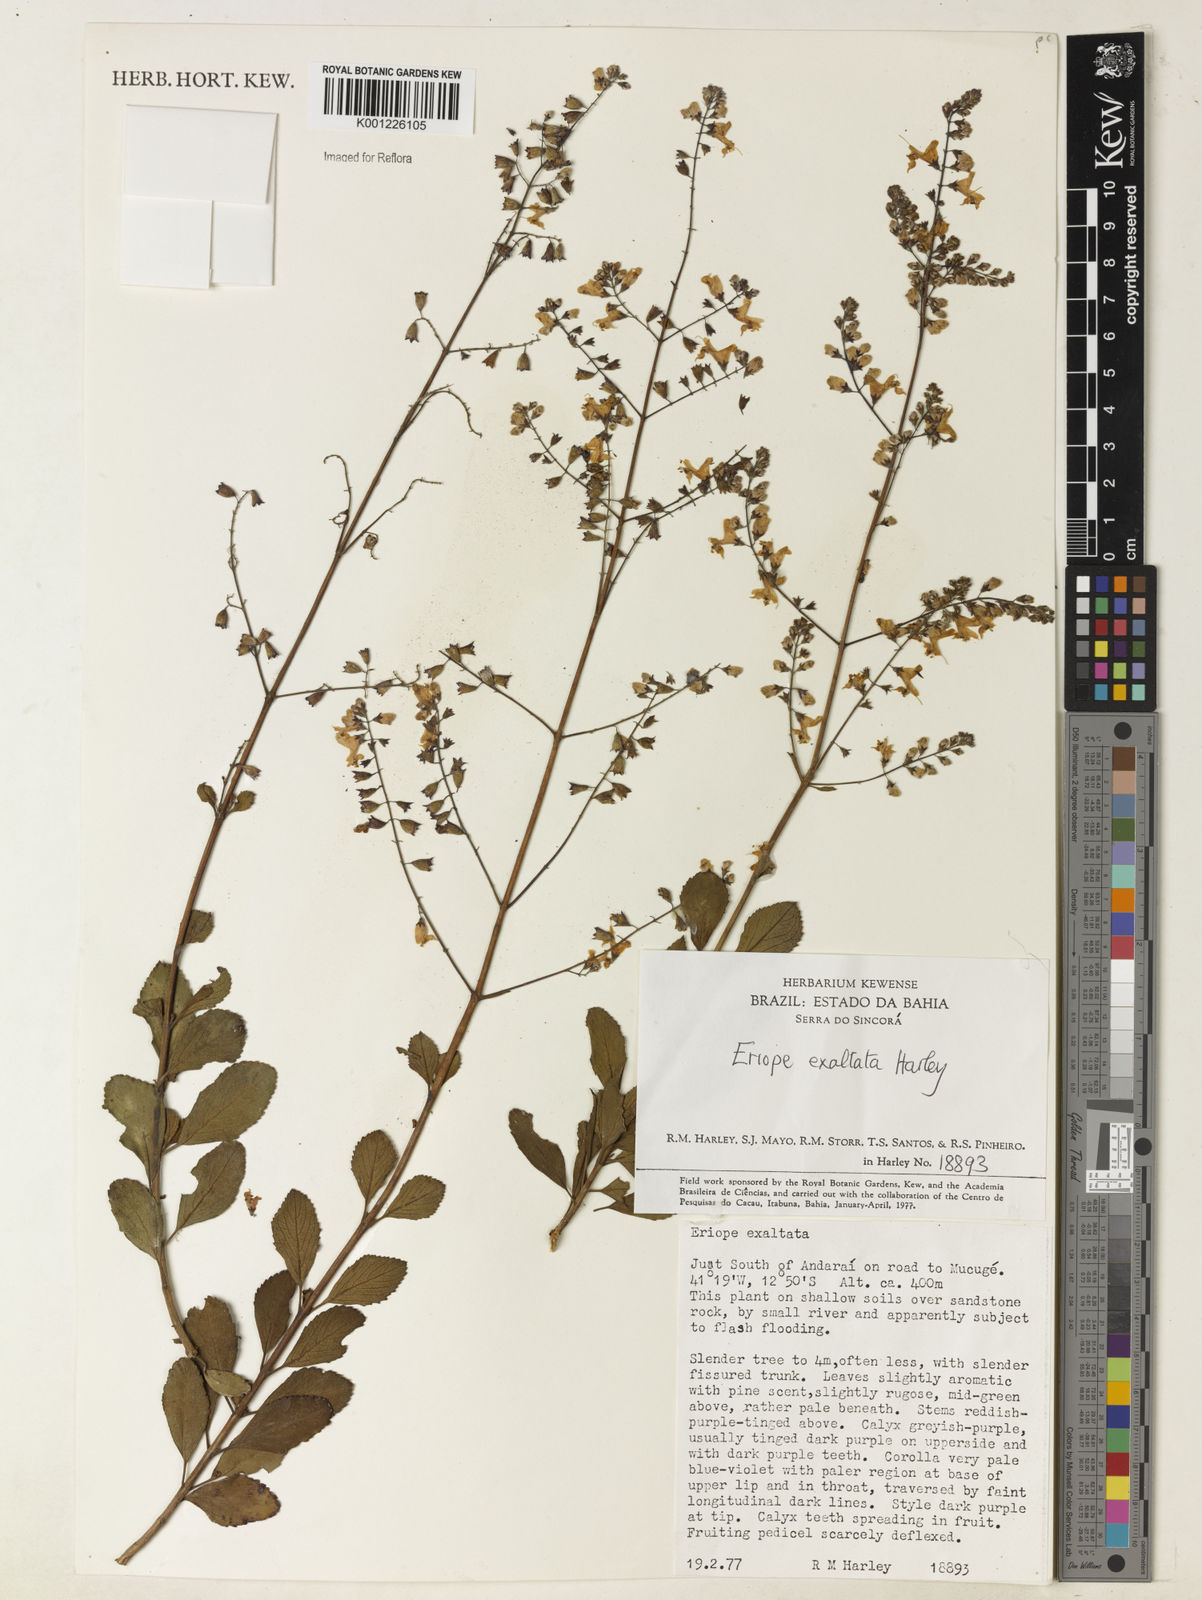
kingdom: Plantae
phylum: Tracheophyta
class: Magnoliopsida
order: Lamiales
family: Lamiaceae
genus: Eriope
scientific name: Eriope exaltata
